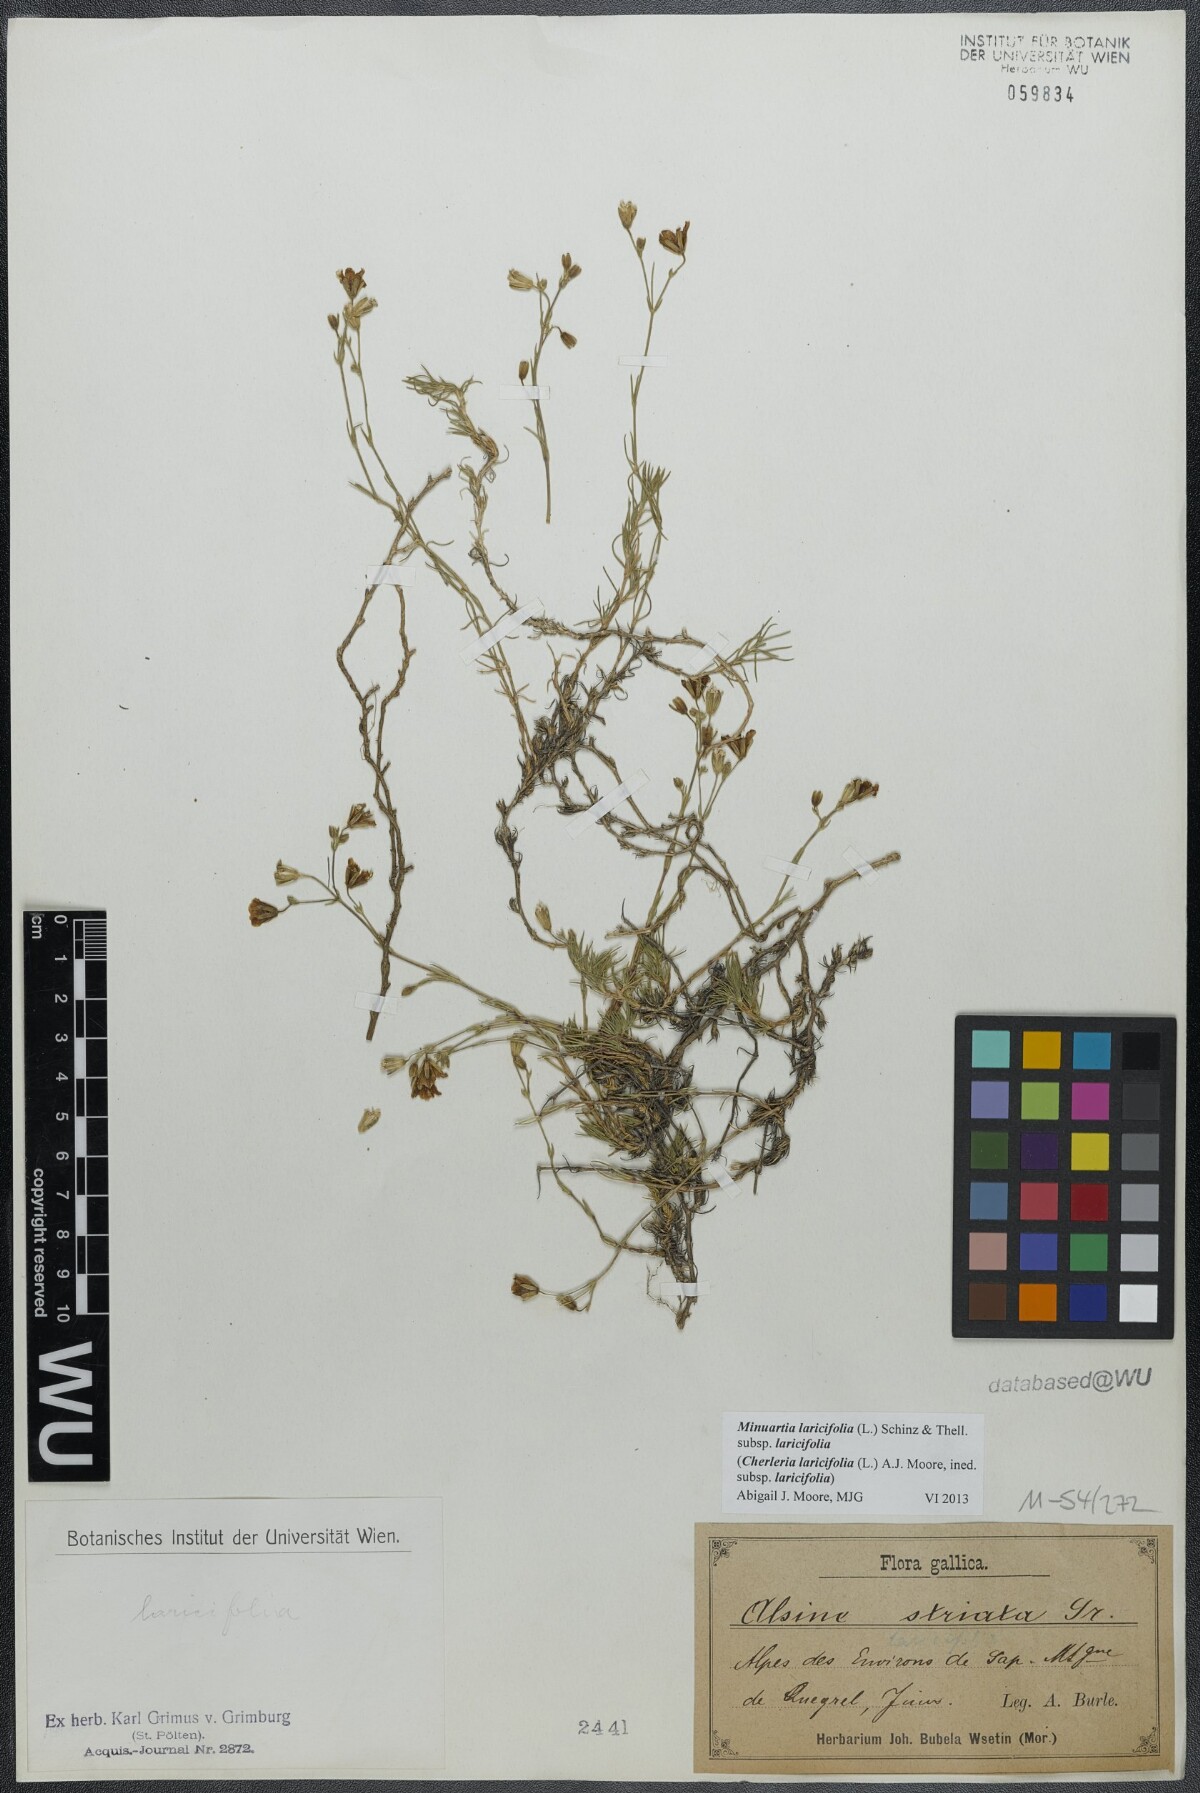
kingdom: Plantae
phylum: Tracheophyta
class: Magnoliopsida
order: Caryophyllales
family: Caryophyllaceae
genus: Cherleria
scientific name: Cherleria laricifolia
